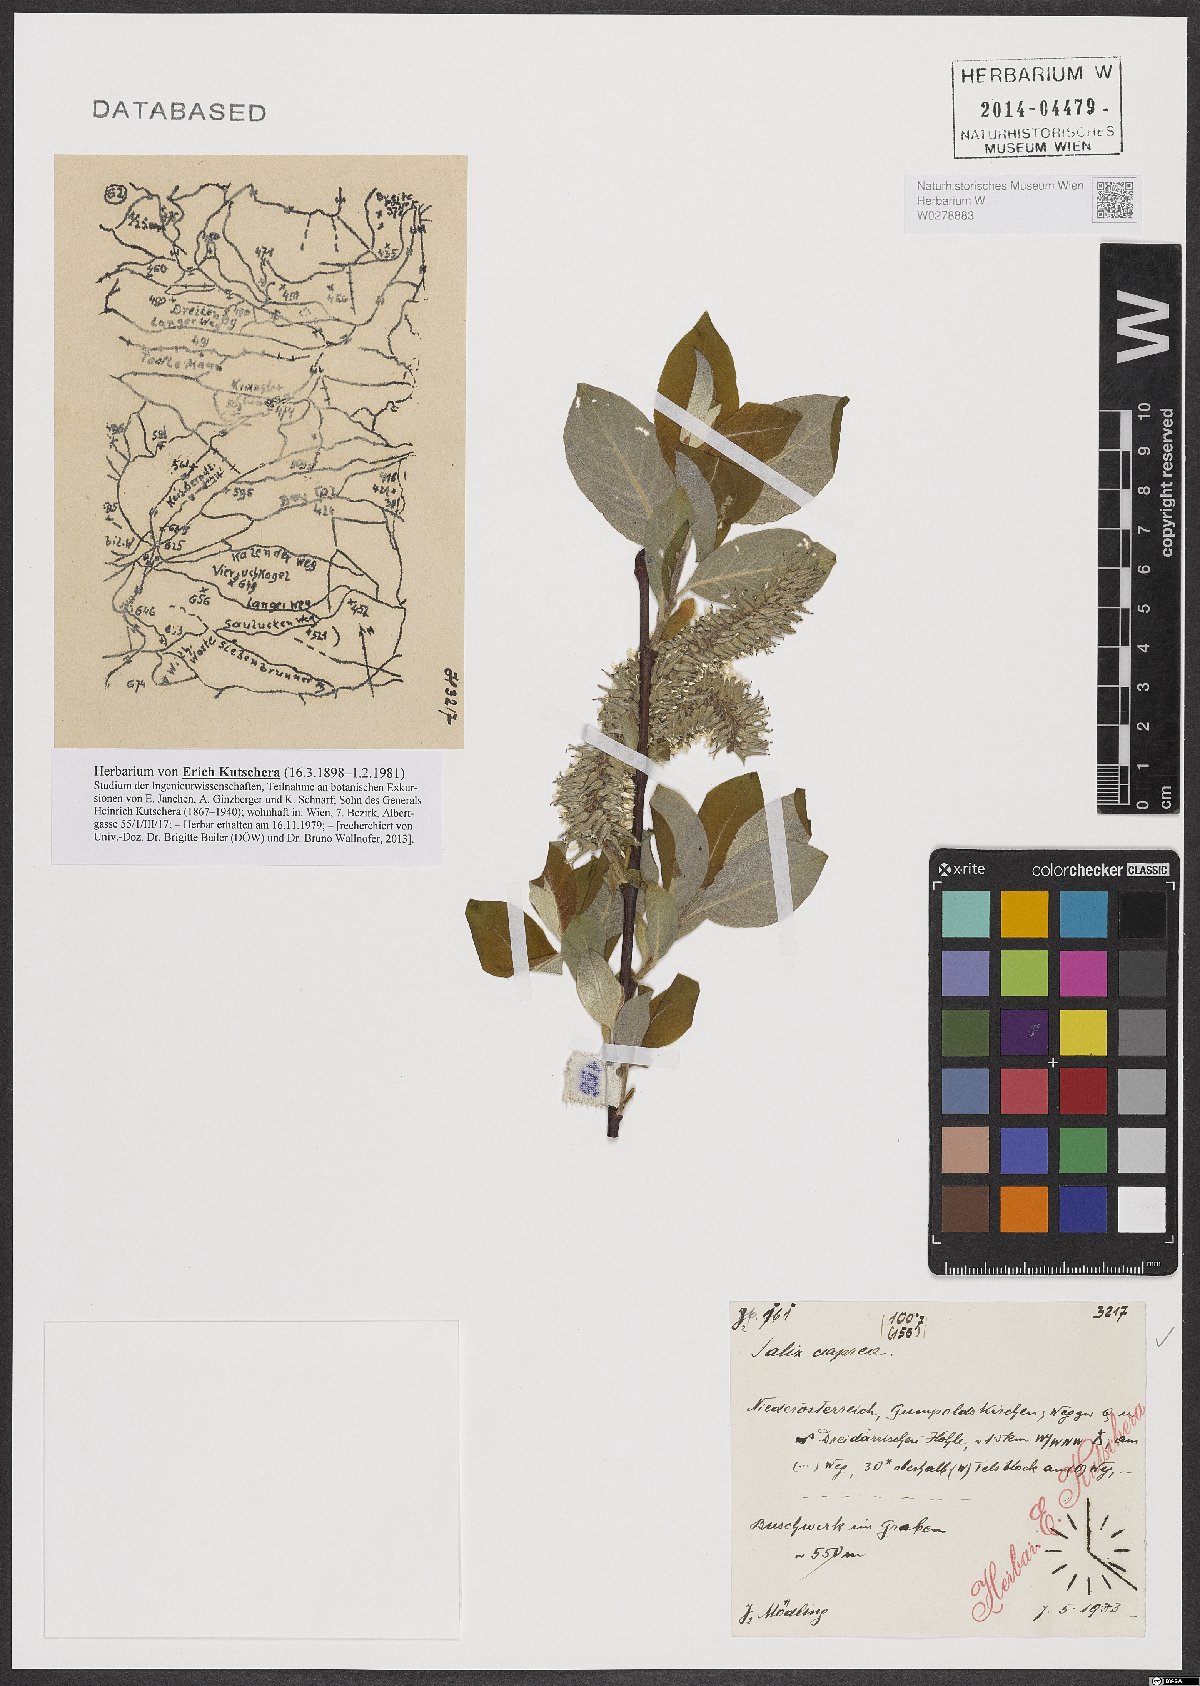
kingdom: Plantae
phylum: Tracheophyta
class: Magnoliopsida
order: Malpighiales
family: Salicaceae
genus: Salix
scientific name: Salix caprea
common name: Goat willow
